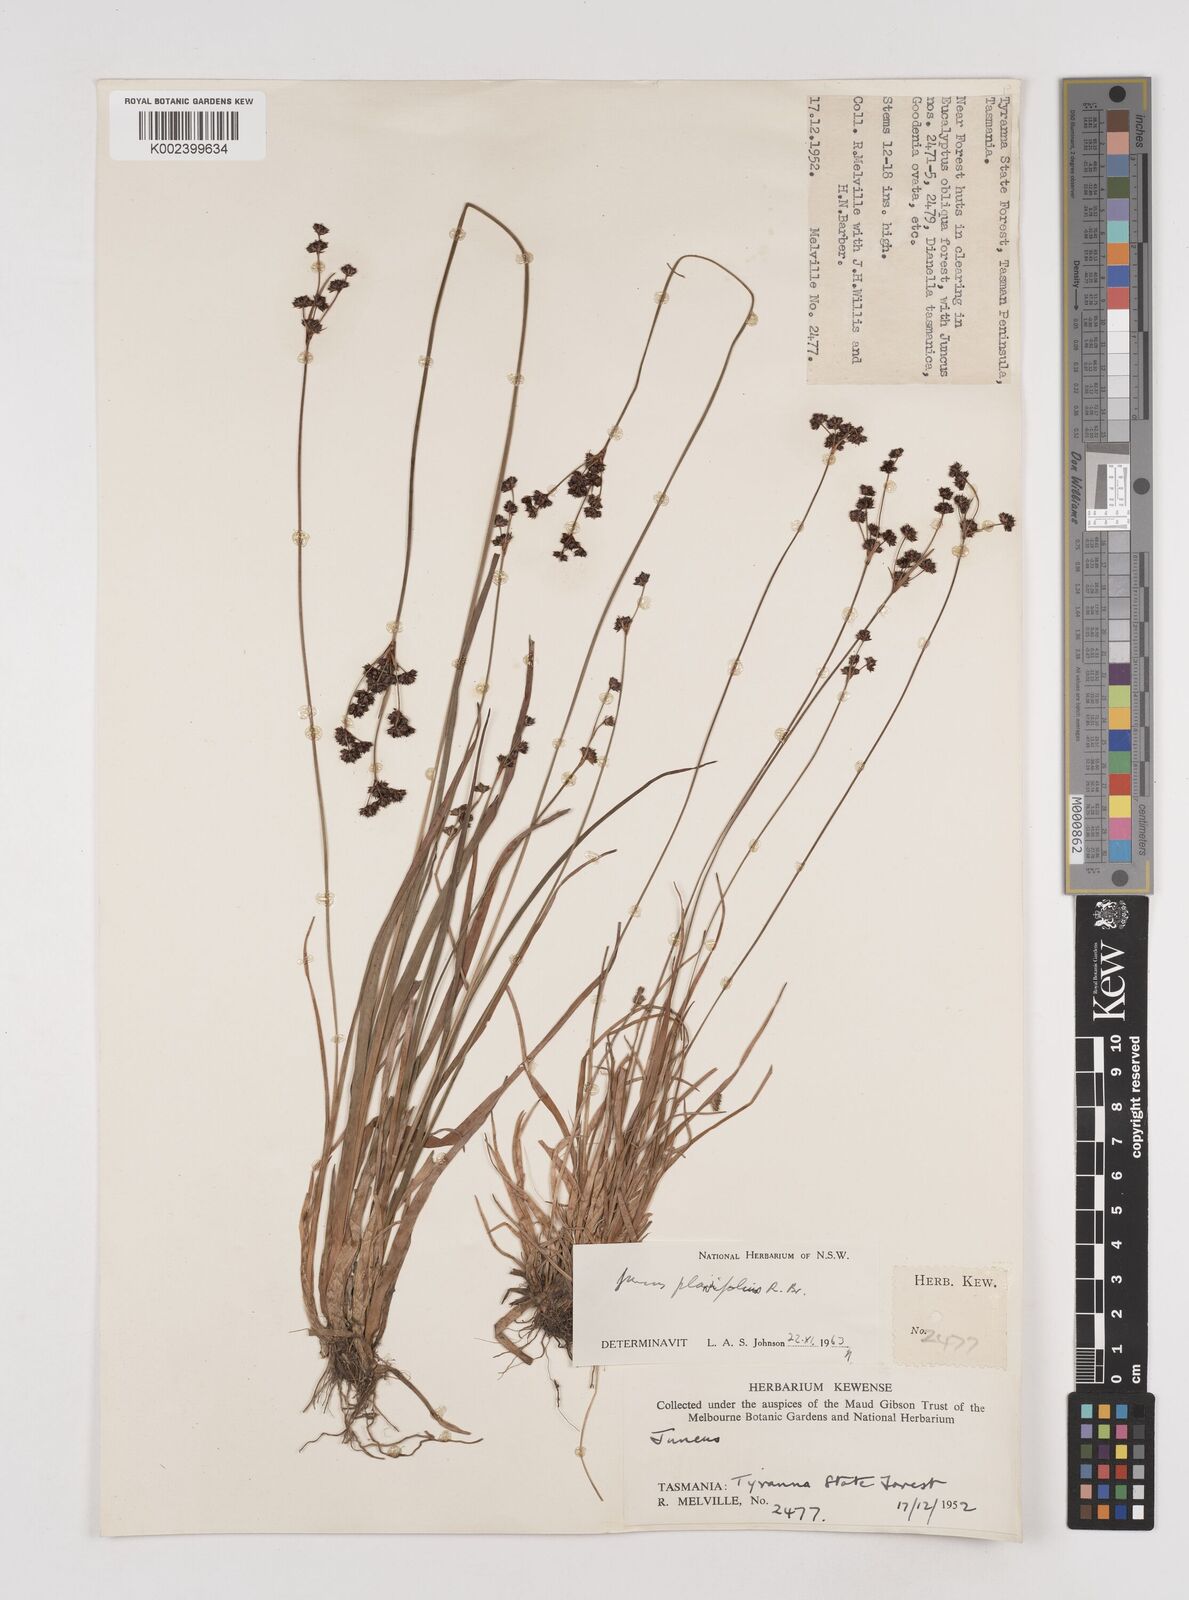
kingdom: Plantae
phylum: Tracheophyta
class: Liliopsida
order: Poales
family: Juncaceae
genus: Juncus
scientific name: Juncus planifolius
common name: Broadleaf rush
